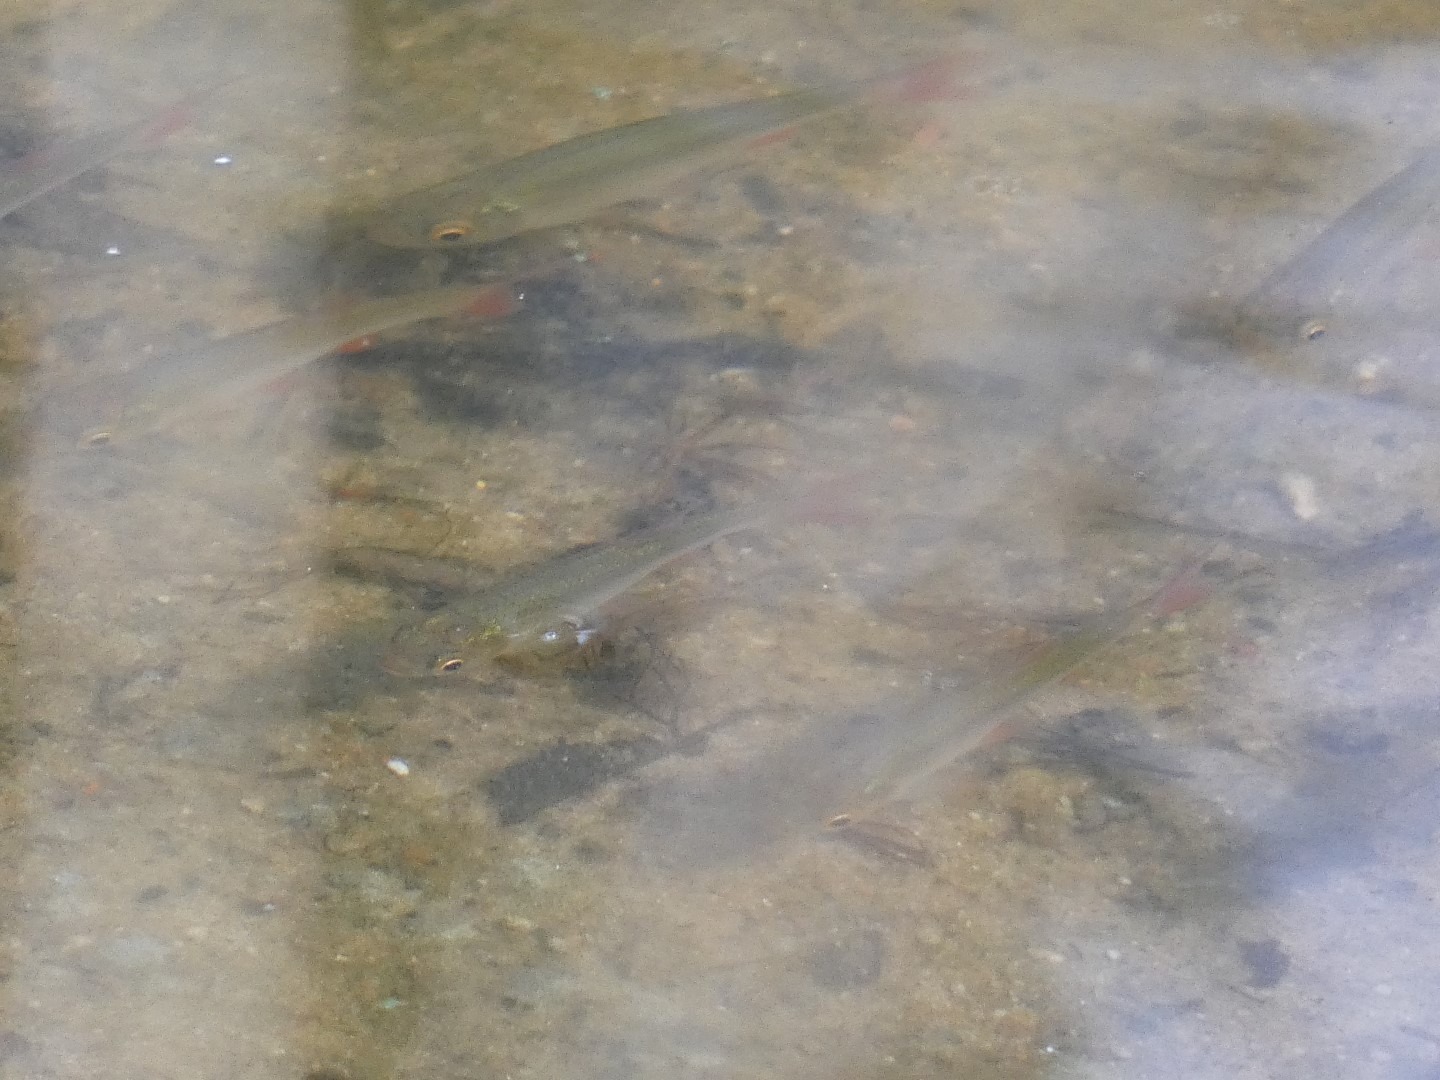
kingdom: Animalia
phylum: Chordata
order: Cypriniformes
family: Cyprinidae
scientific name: Cyprinidae
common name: Karpefamilien
